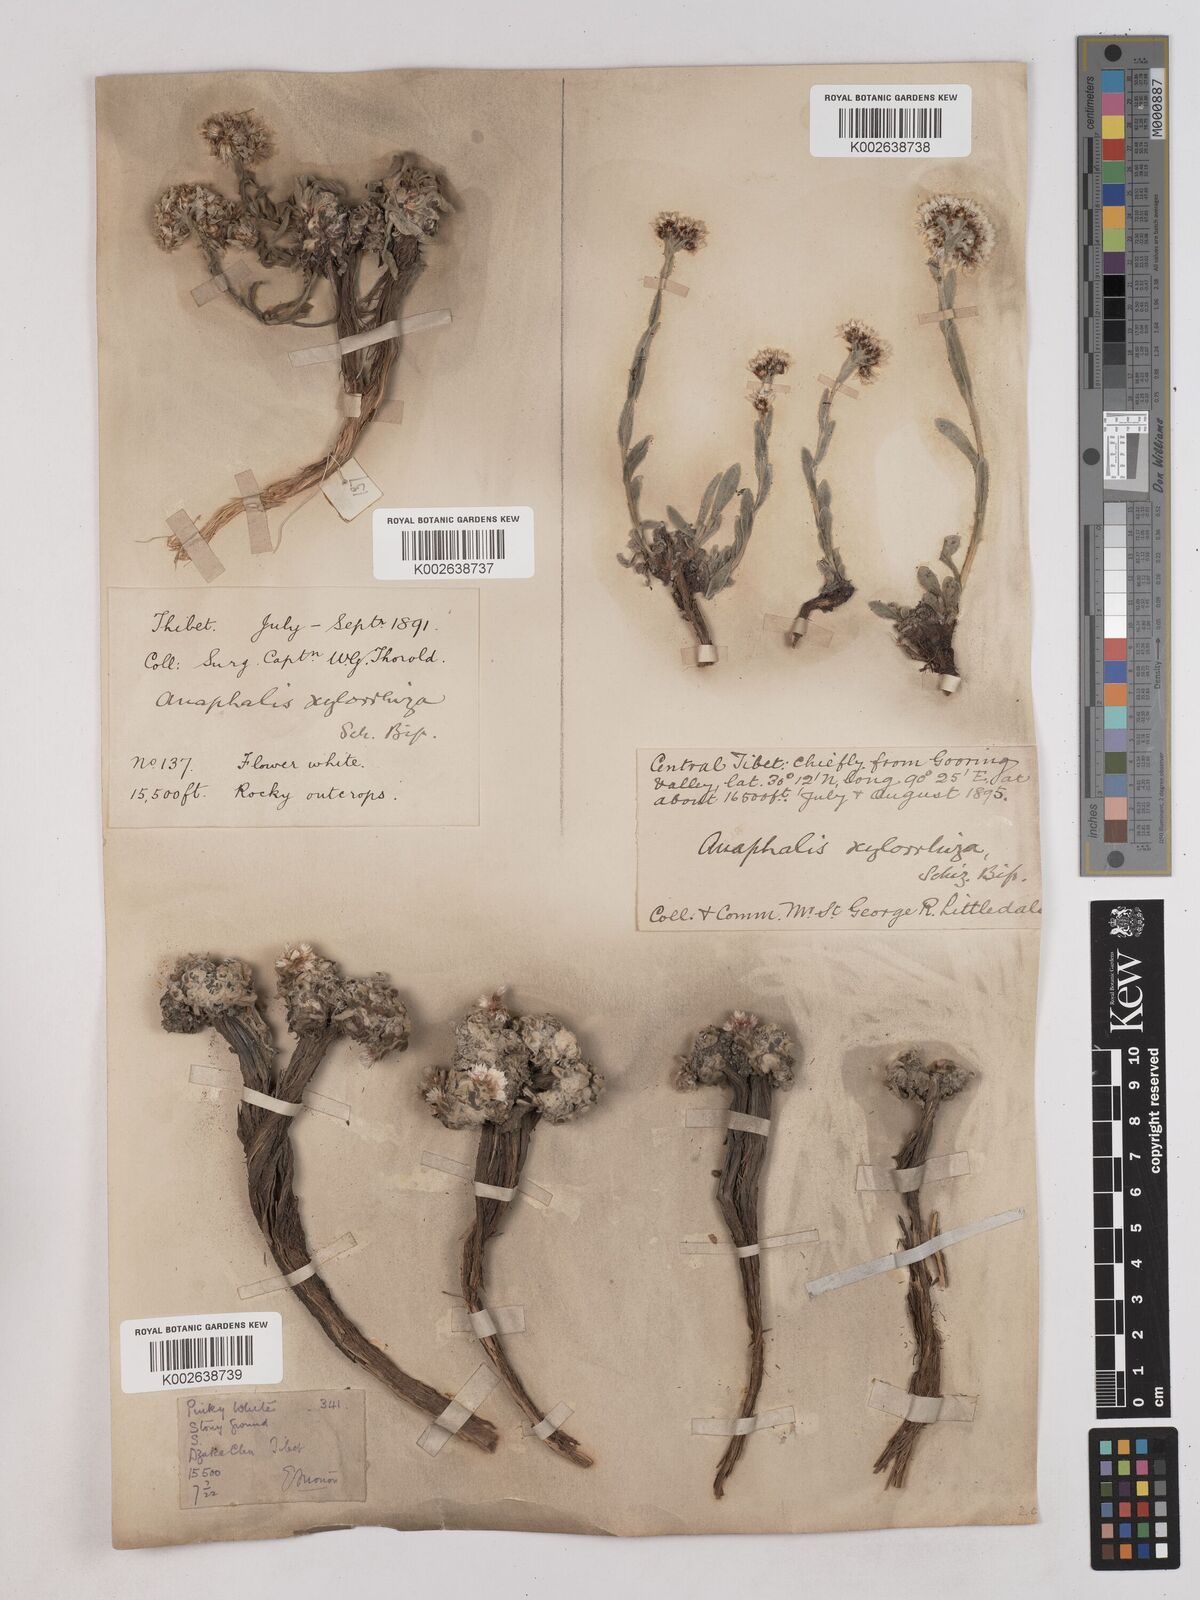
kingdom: Plantae
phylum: Tracheophyta
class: Magnoliopsida
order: Asterales
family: Asteraceae
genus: Anaphalis
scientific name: Anaphalis xylorhiza
